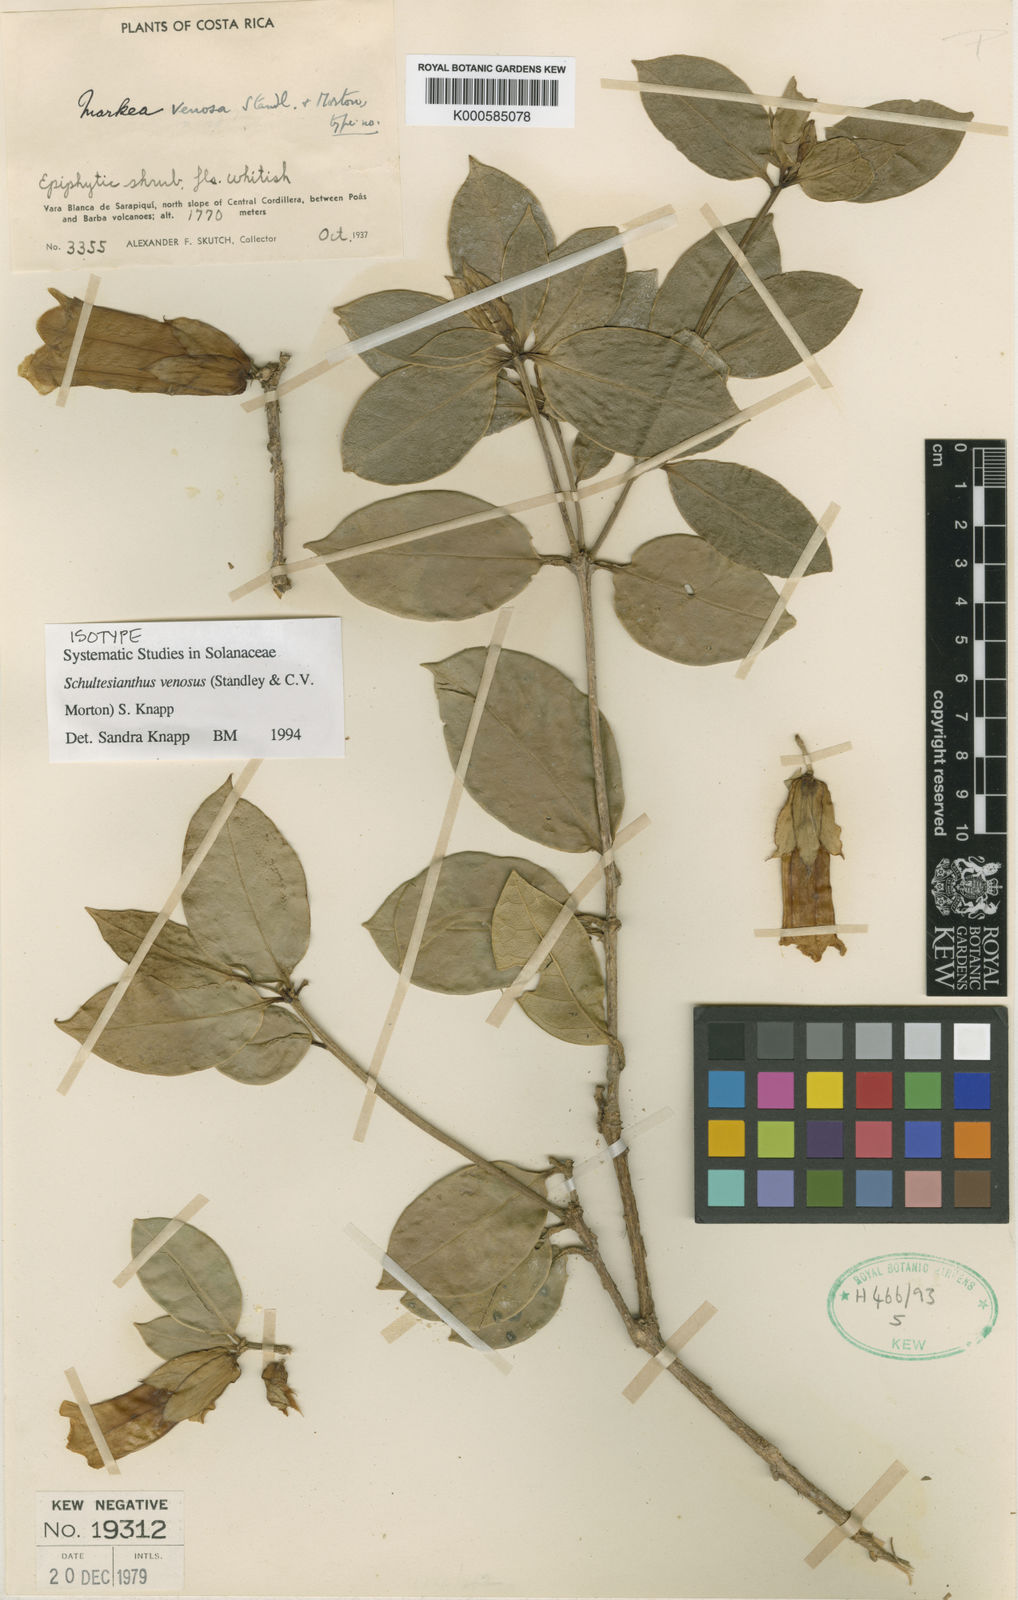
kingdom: Plantae
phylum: Tracheophyta
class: Magnoliopsida
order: Solanales
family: Solanaceae
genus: Schultesianthus
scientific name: Schultesianthus venosus
